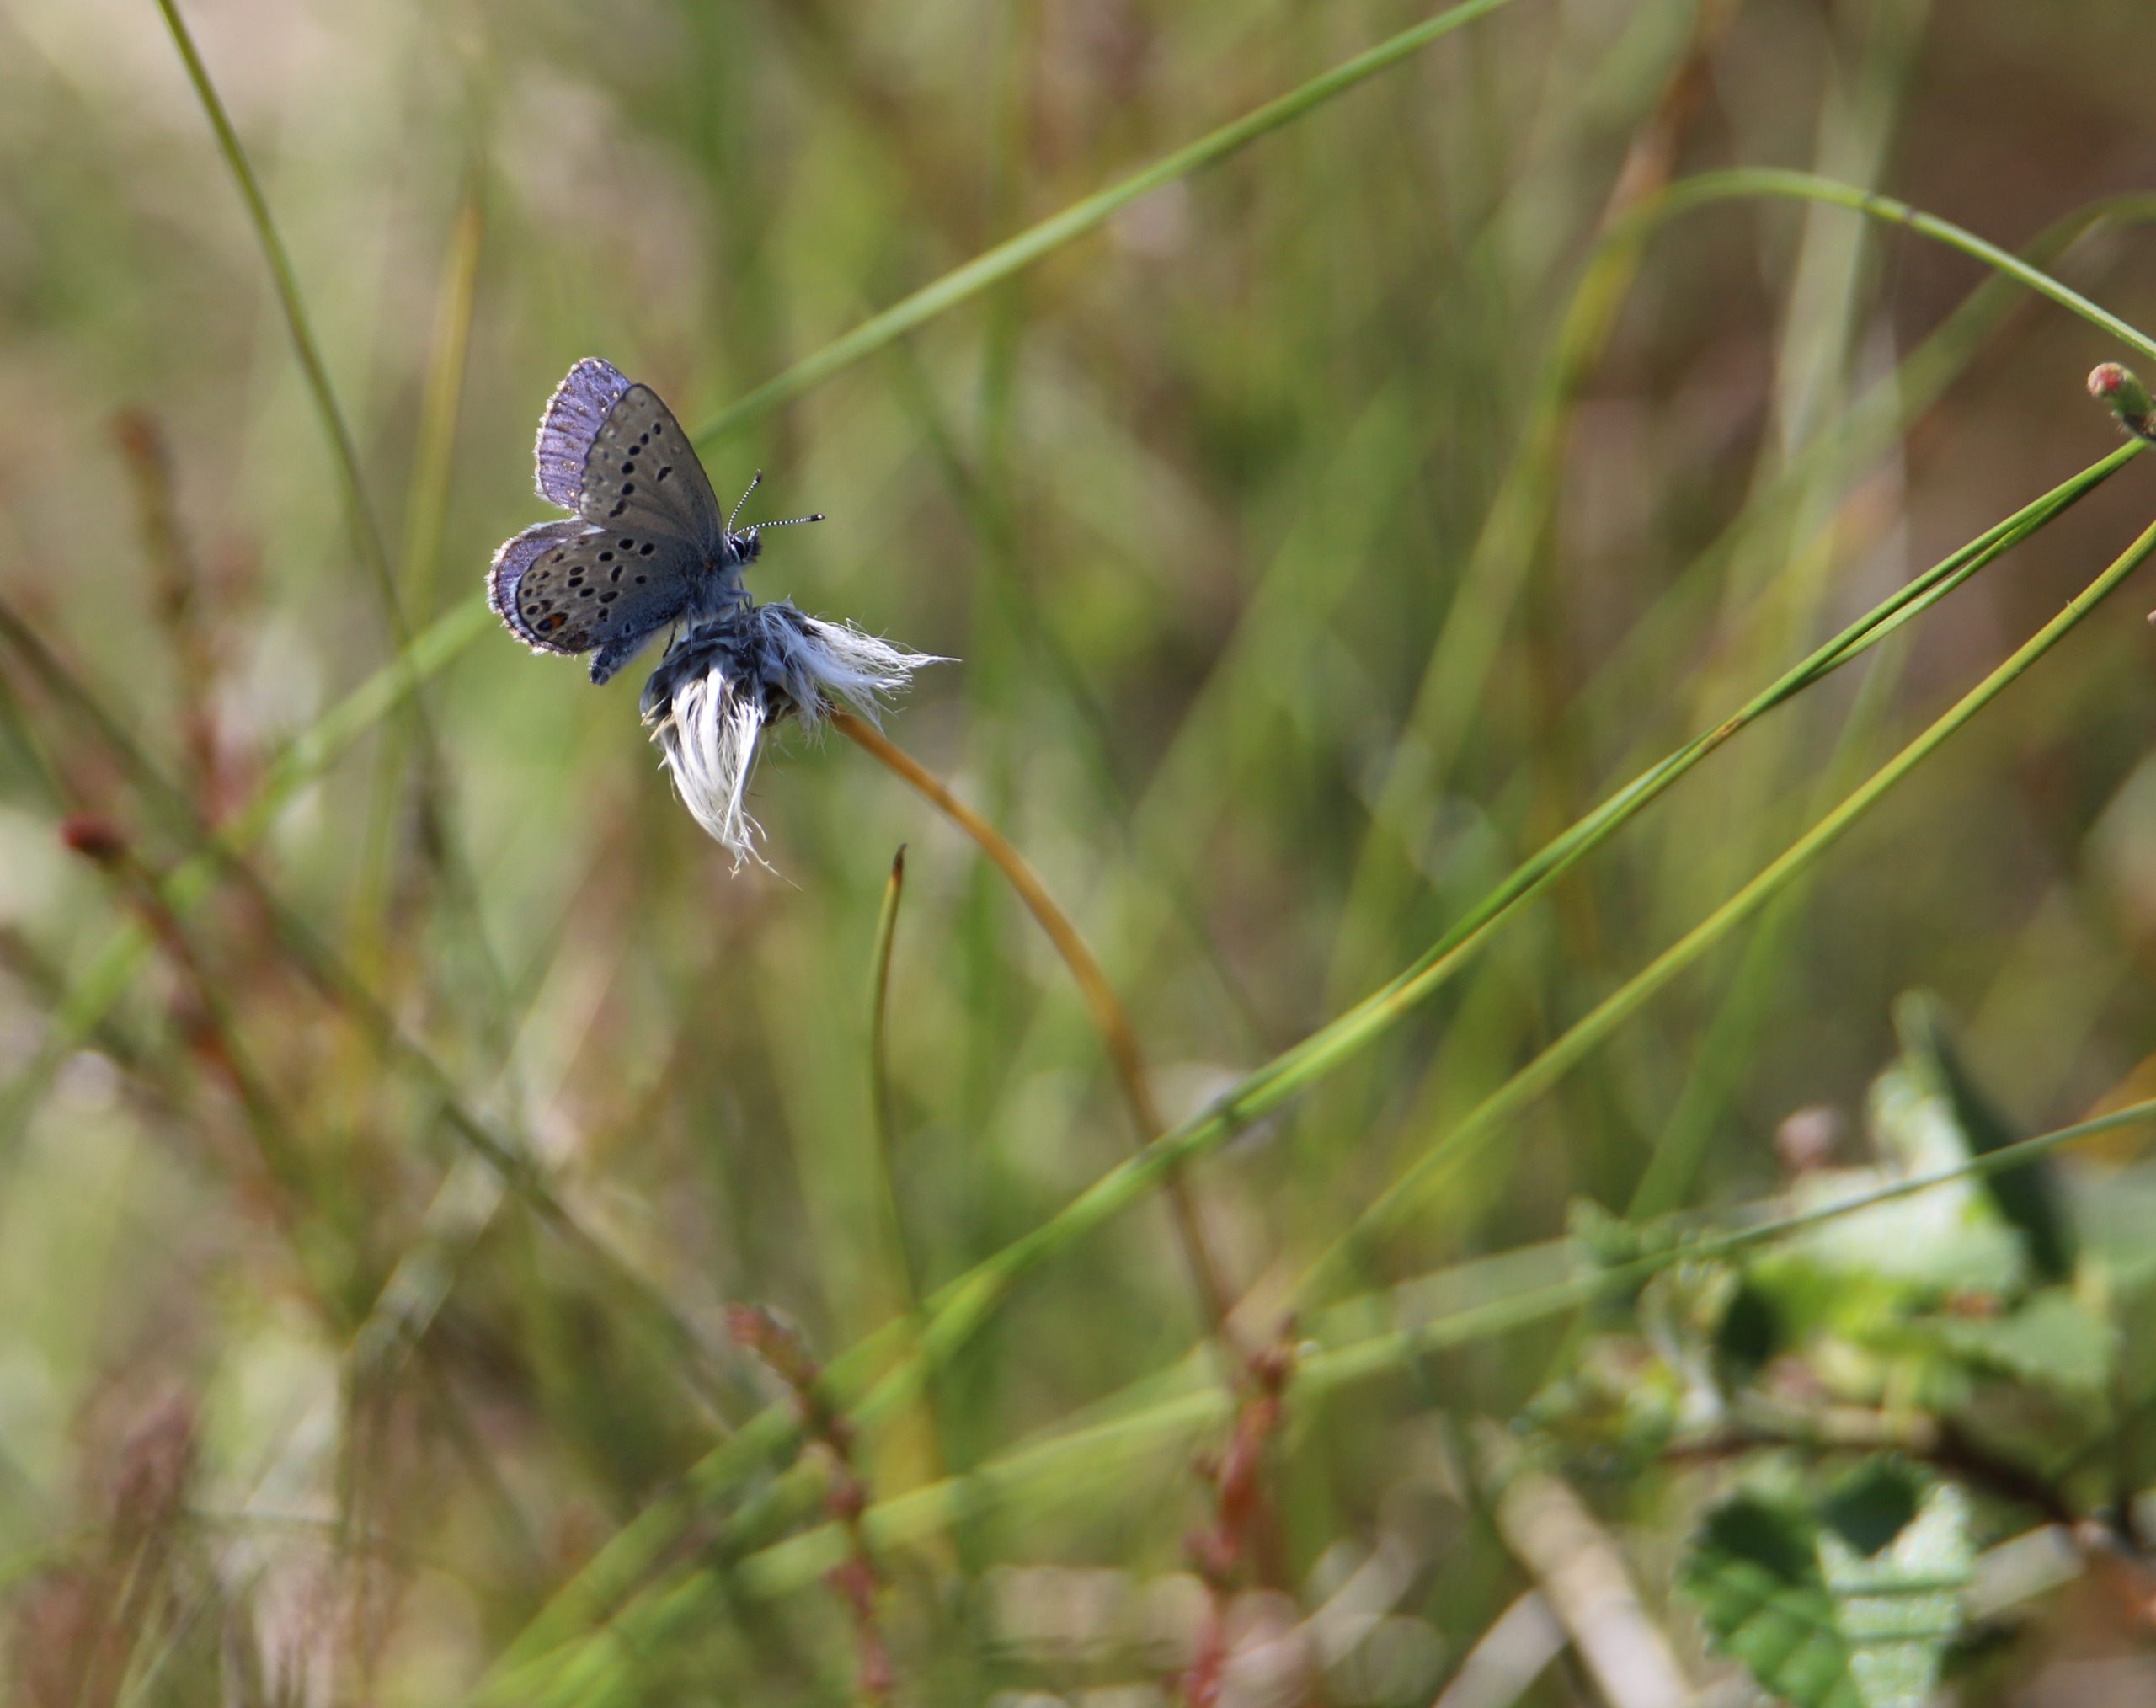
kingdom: Animalia
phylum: Arthropoda
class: Insecta
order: Lepidoptera
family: Lycaenidae
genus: Vacciniina
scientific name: Vacciniina optilete
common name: Bølleblåfugl
